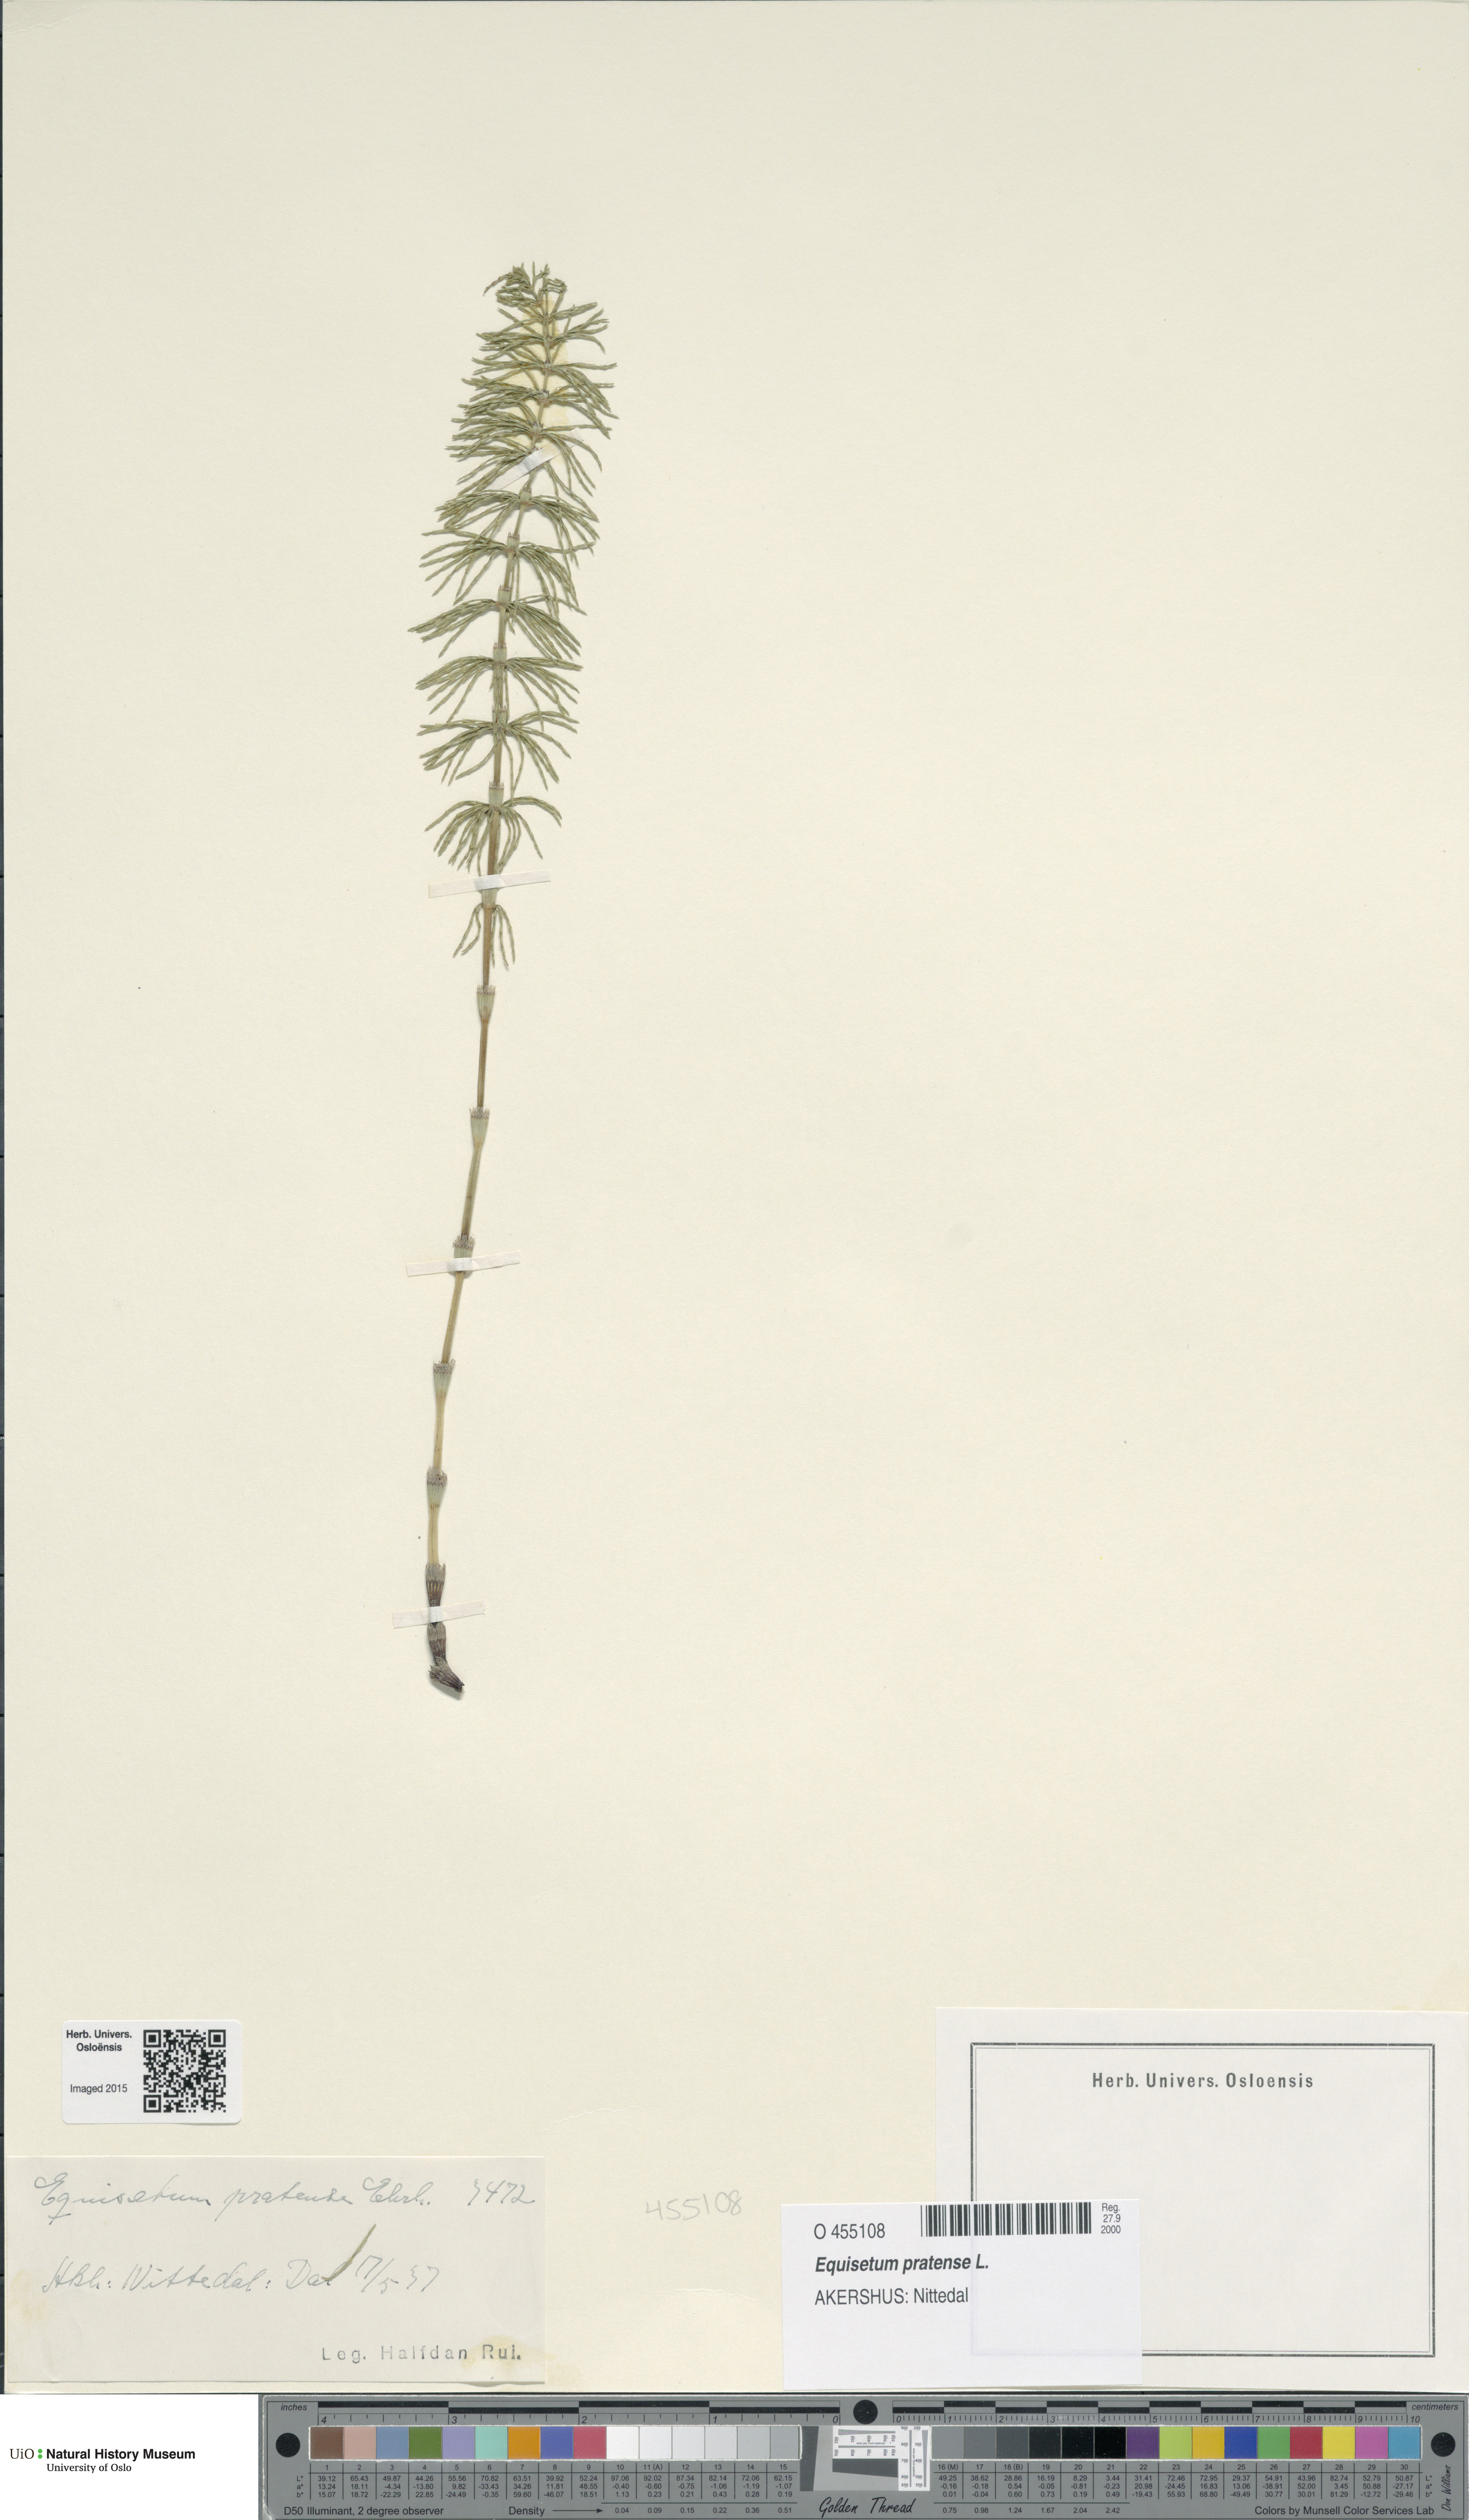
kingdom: Plantae
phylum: Tracheophyta
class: Polypodiopsida
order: Equisetales
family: Equisetaceae
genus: Equisetum
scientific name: Equisetum pratense
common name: Meadow horsetail
